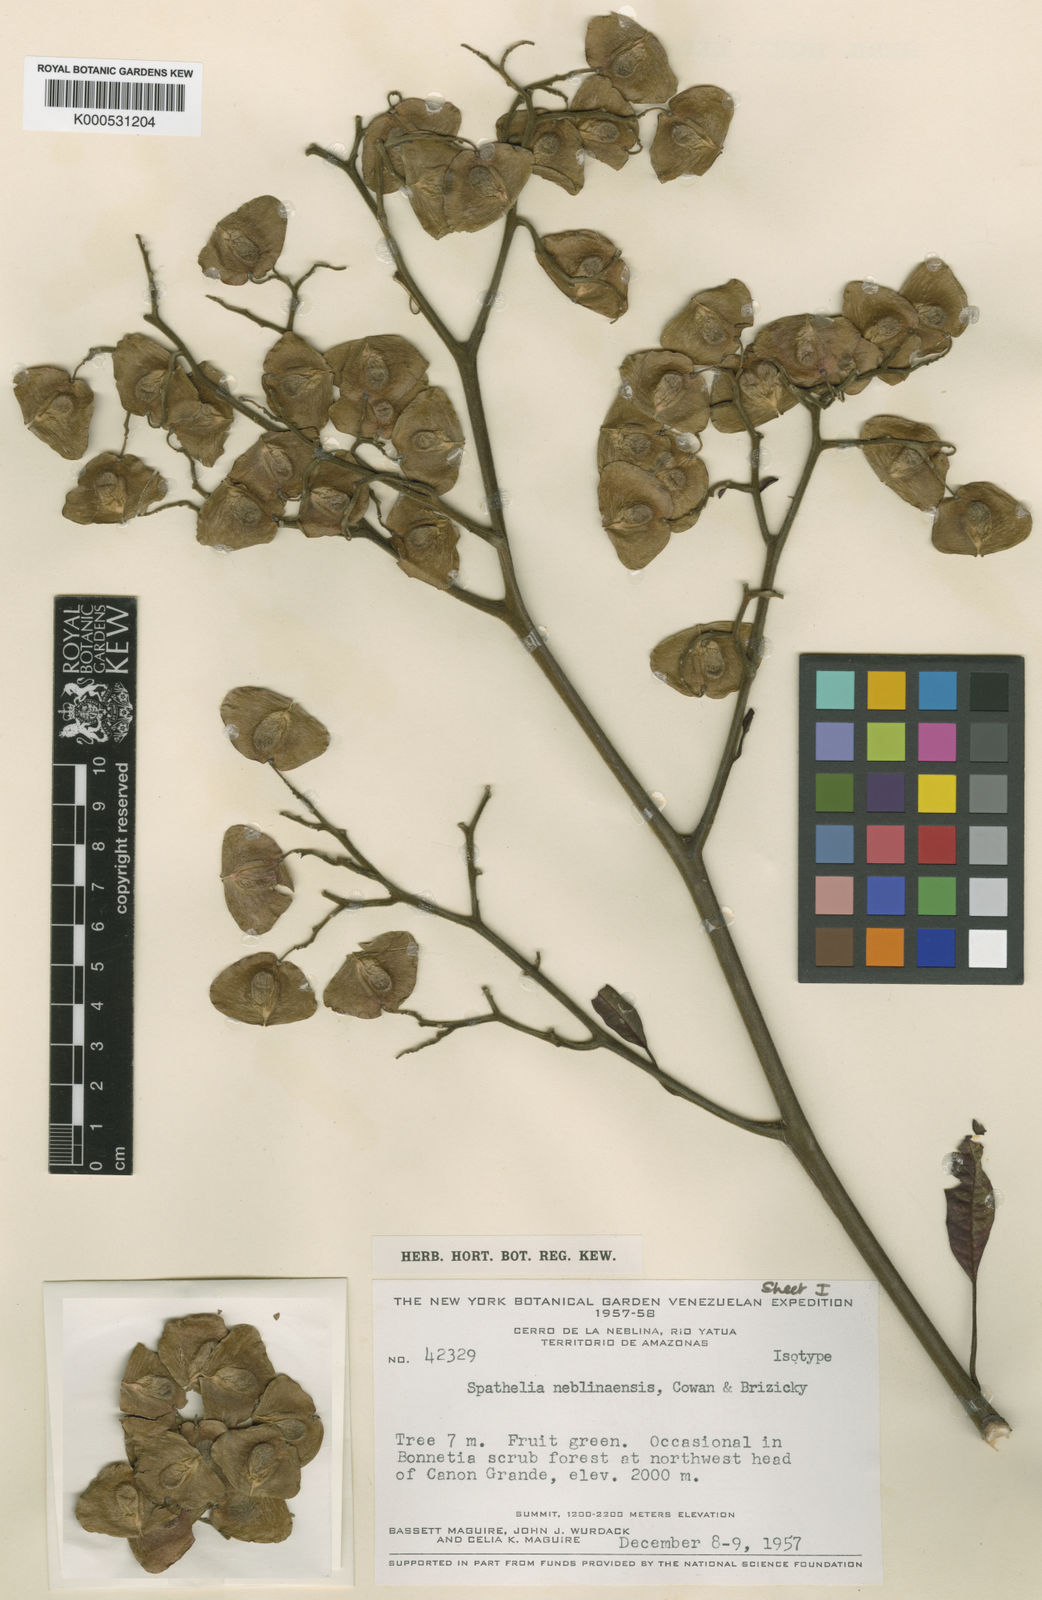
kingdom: Plantae
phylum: Tracheophyta
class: Magnoliopsida
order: Sapindales
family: Rutaceae
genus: Spathelia
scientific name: Spathelia
